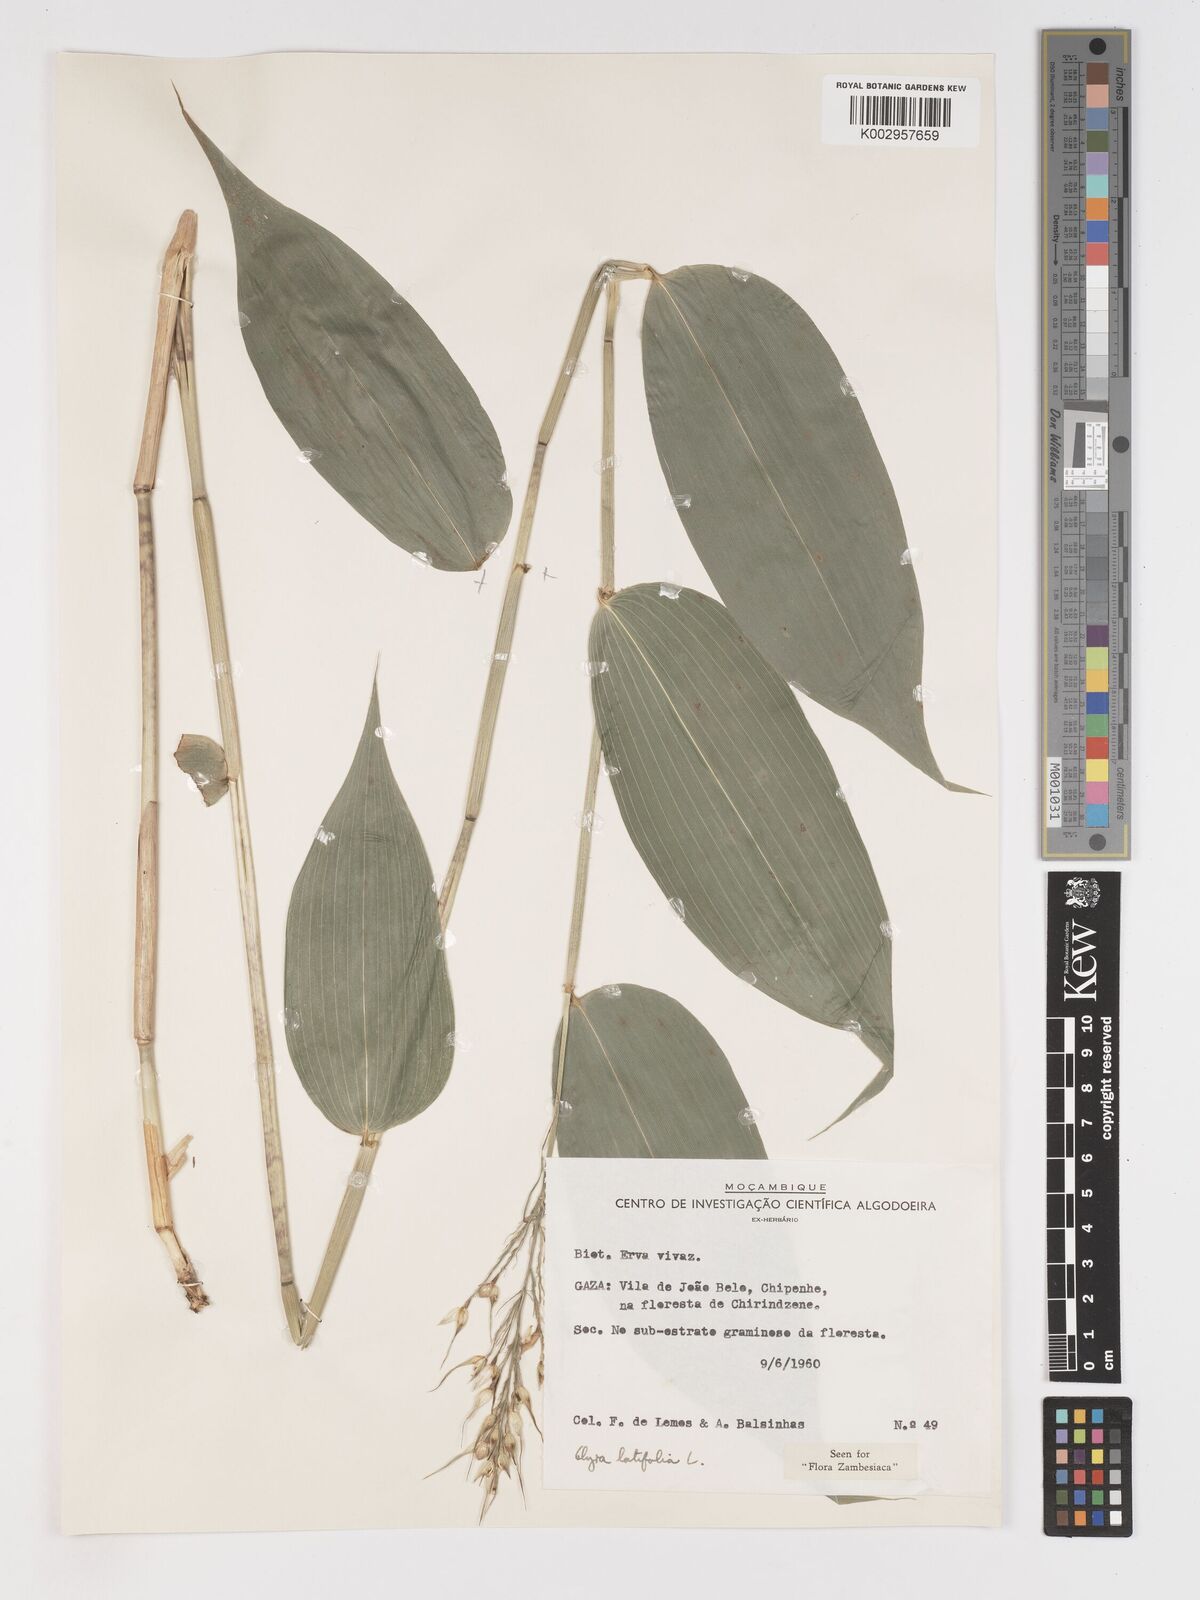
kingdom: Plantae
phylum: Tracheophyta
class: Liliopsida
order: Poales
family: Poaceae
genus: Olyra
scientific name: Olyra latifolia
